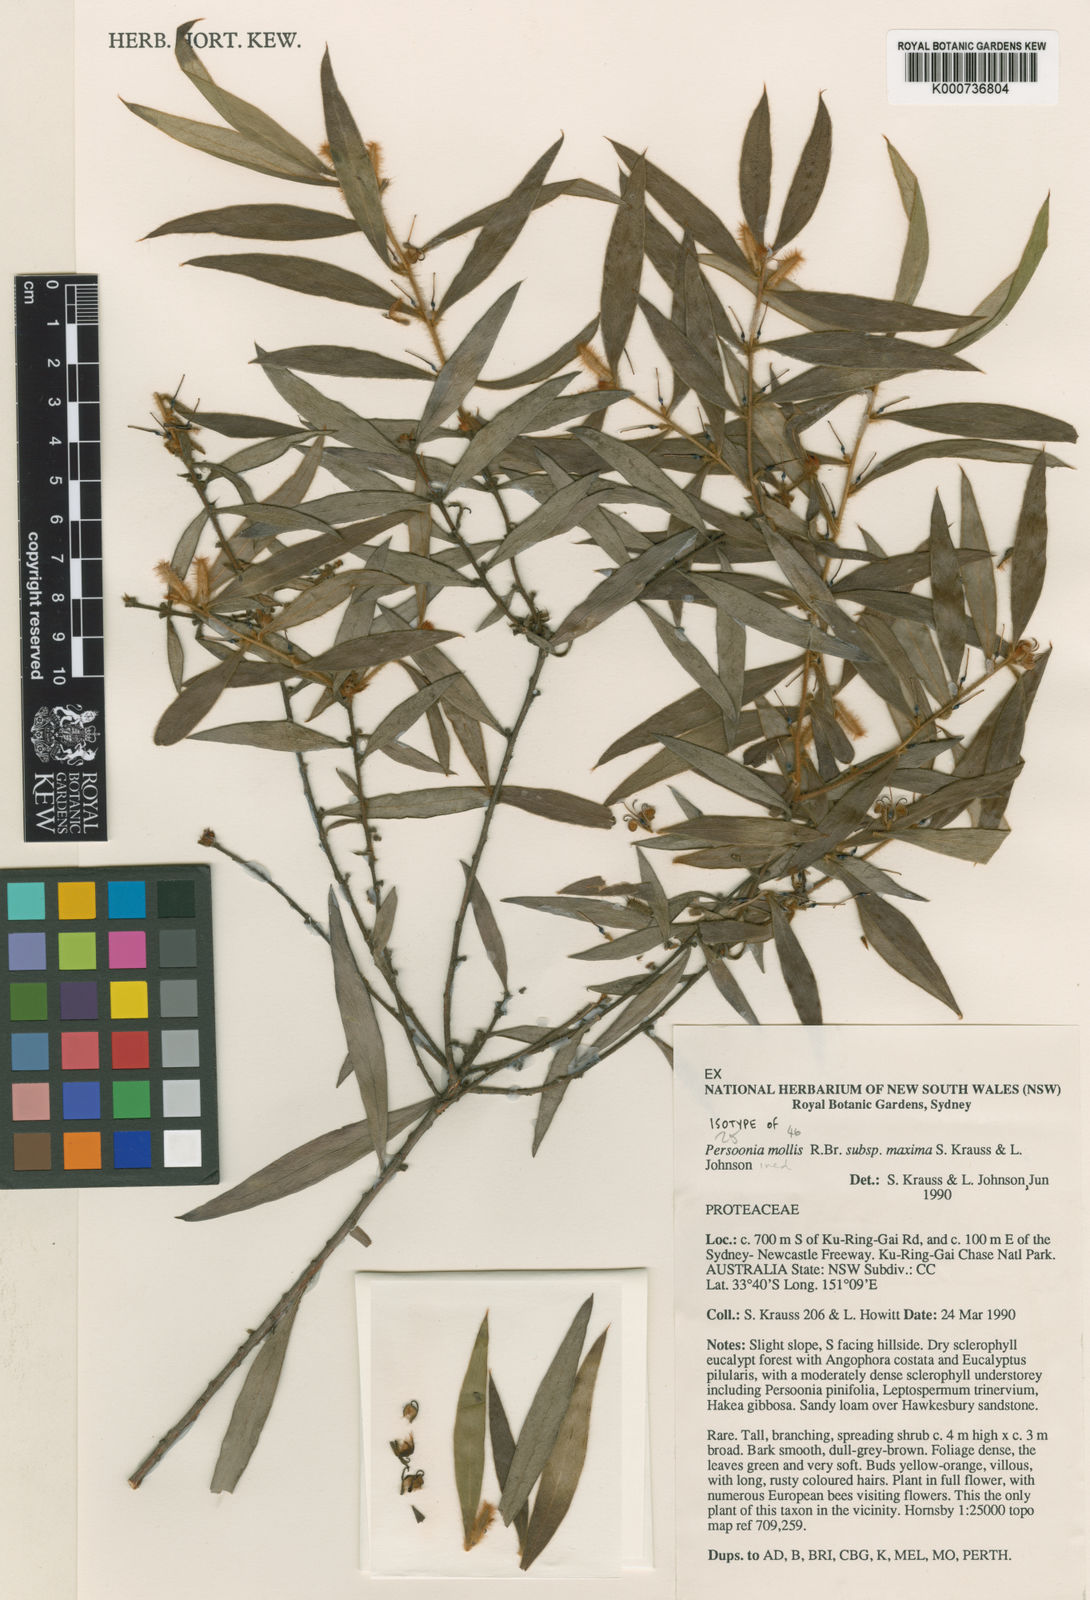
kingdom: Plantae
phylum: Tracheophyta
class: Magnoliopsida
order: Proteales
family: Proteaceae
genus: Persoonia
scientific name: Persoonia mollis
